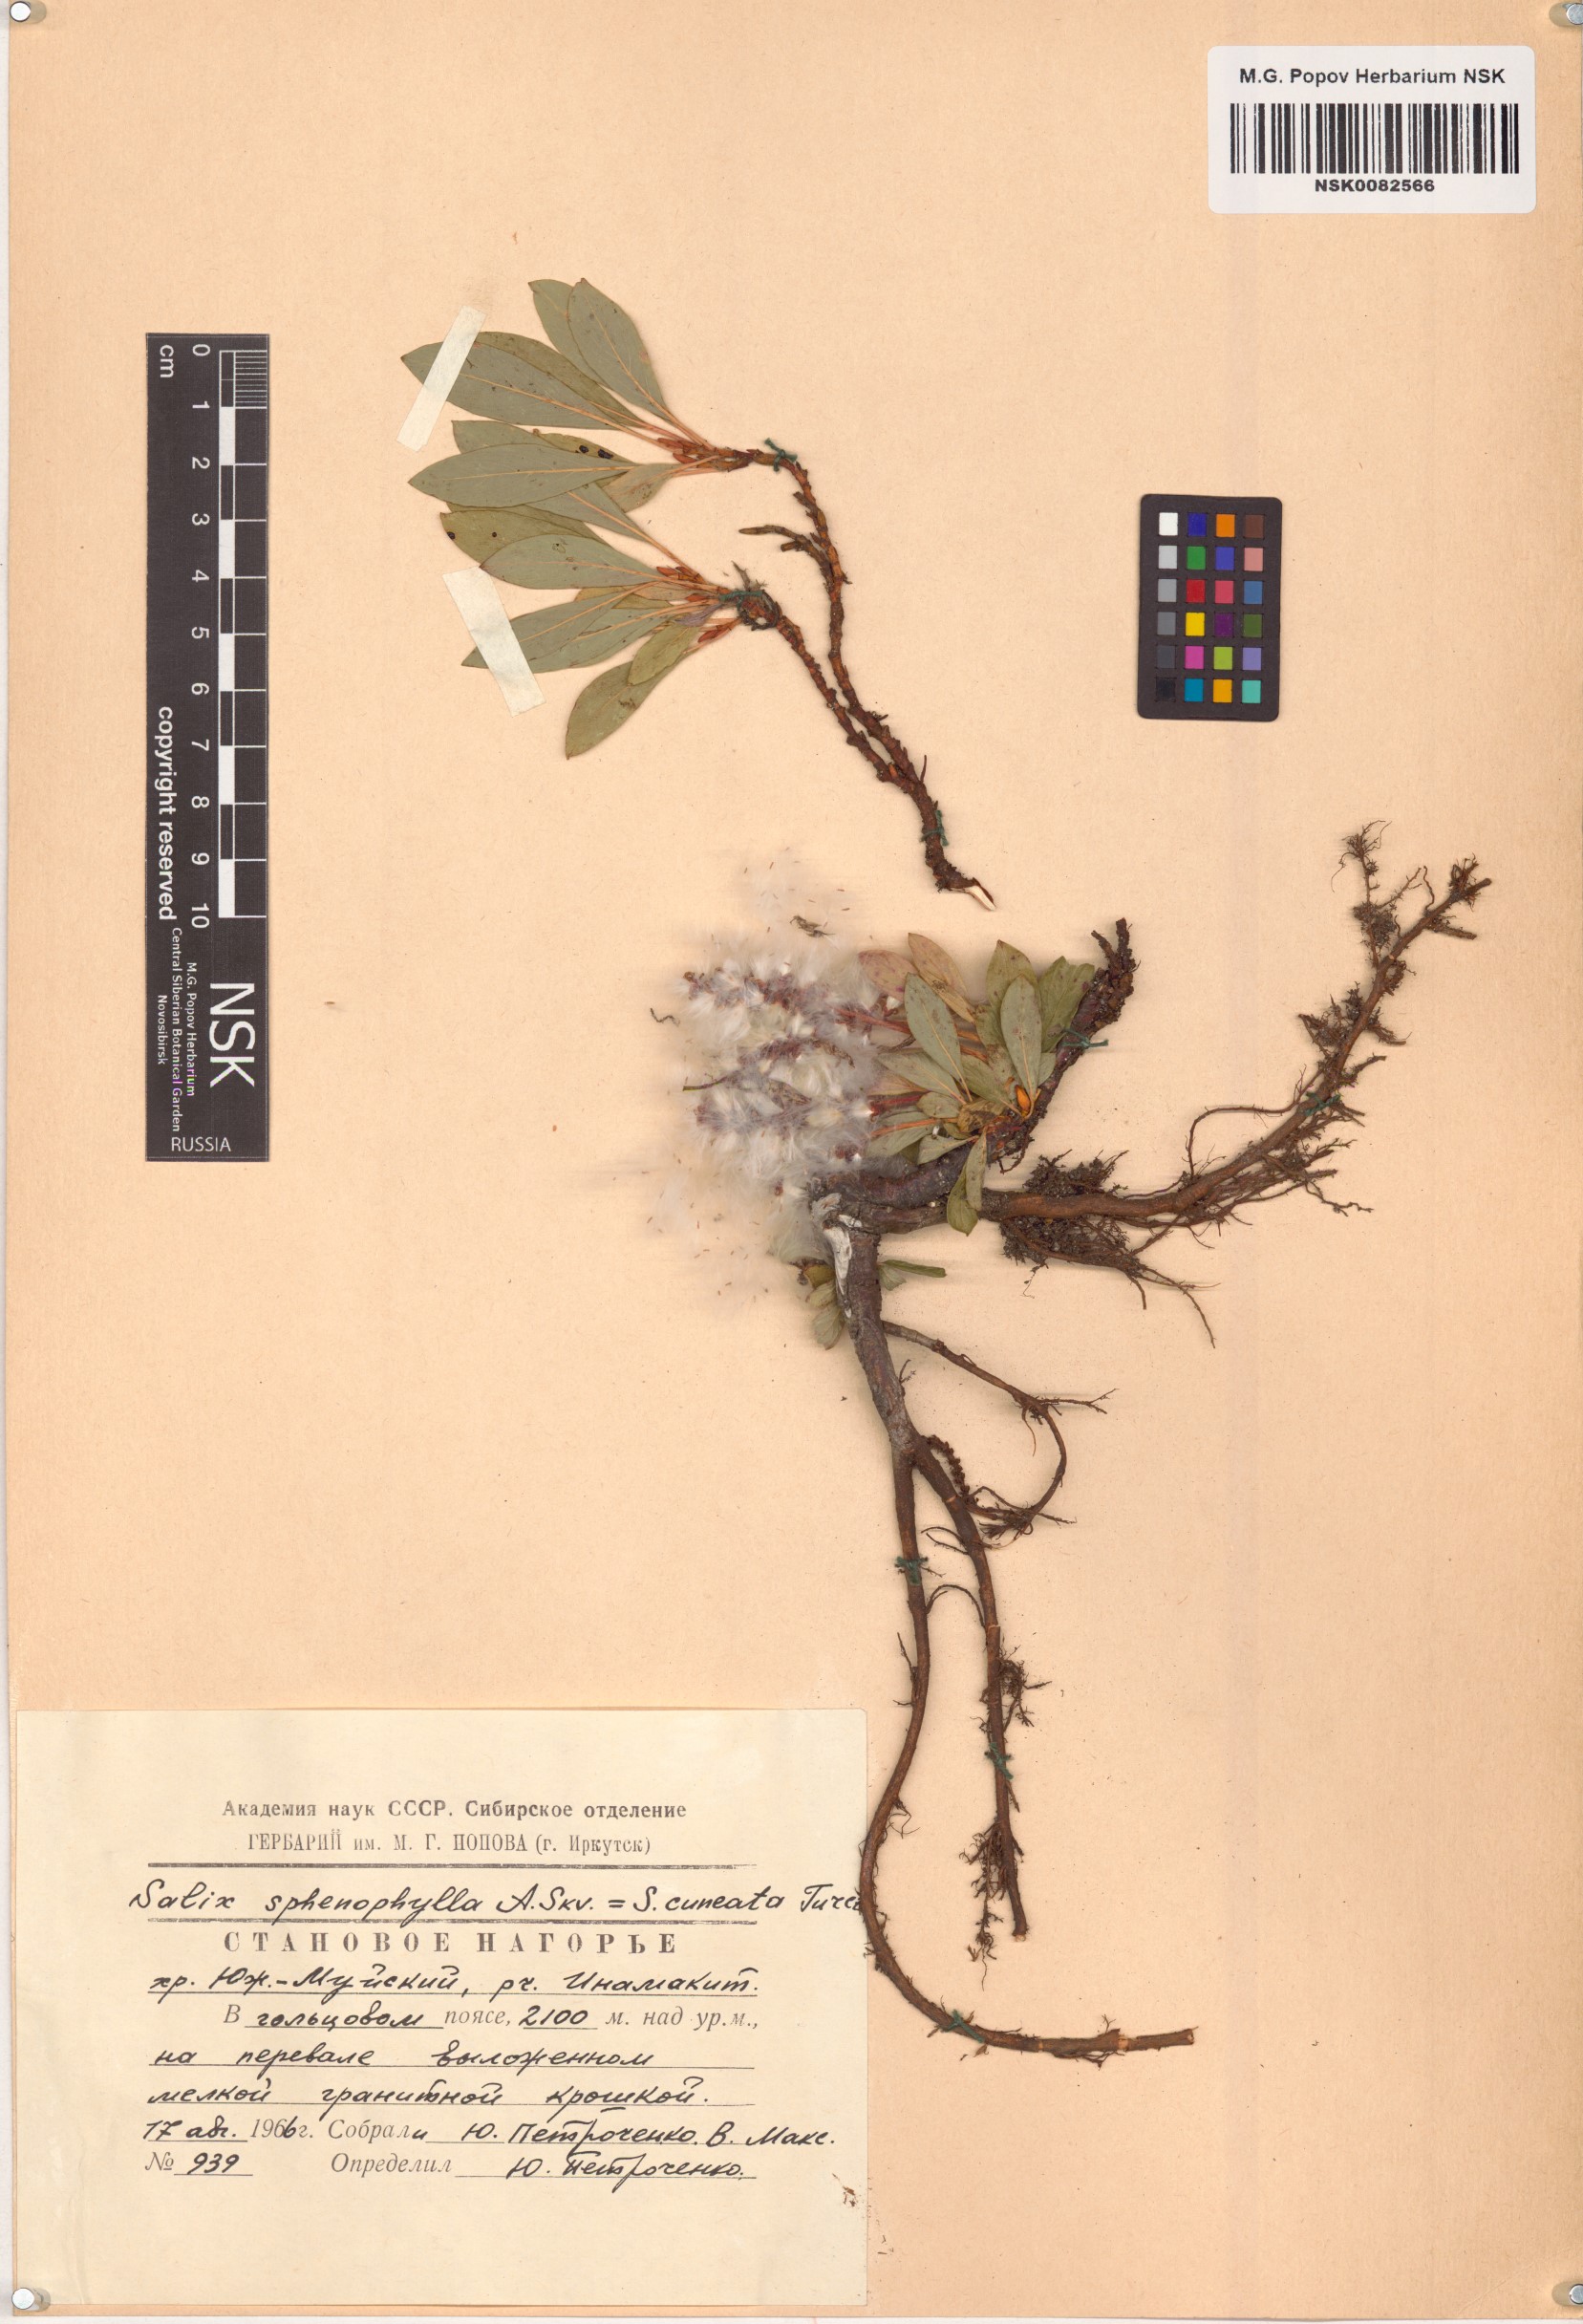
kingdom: Plantae
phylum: Tracheophyta
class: Magnoliopsida
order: Malpighiales
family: Salicaceae
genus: Salix
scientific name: Salix sphenophylla
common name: Wedge-leaved willow
